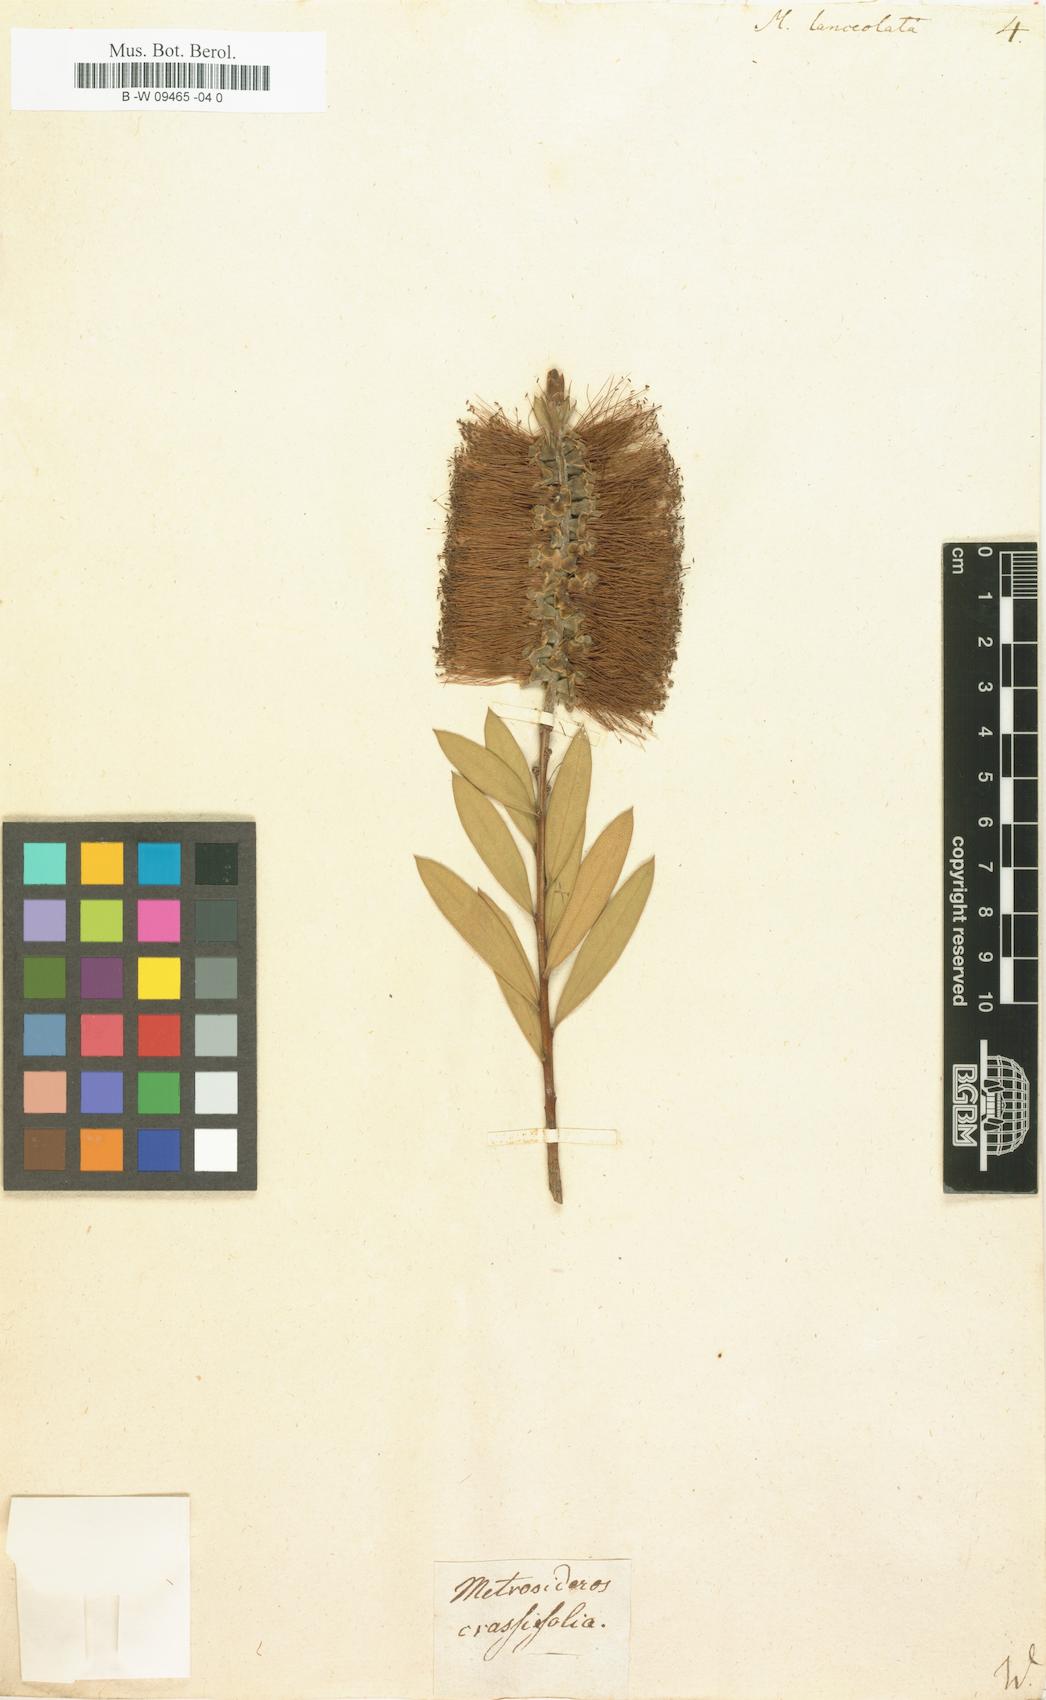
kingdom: Plantae
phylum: Tracheophyta
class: Magnoliopsida
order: Myrtales
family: Myrtaceae
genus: Callistemon
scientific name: Callistemon citrinus
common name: Crimson bottlebrush
